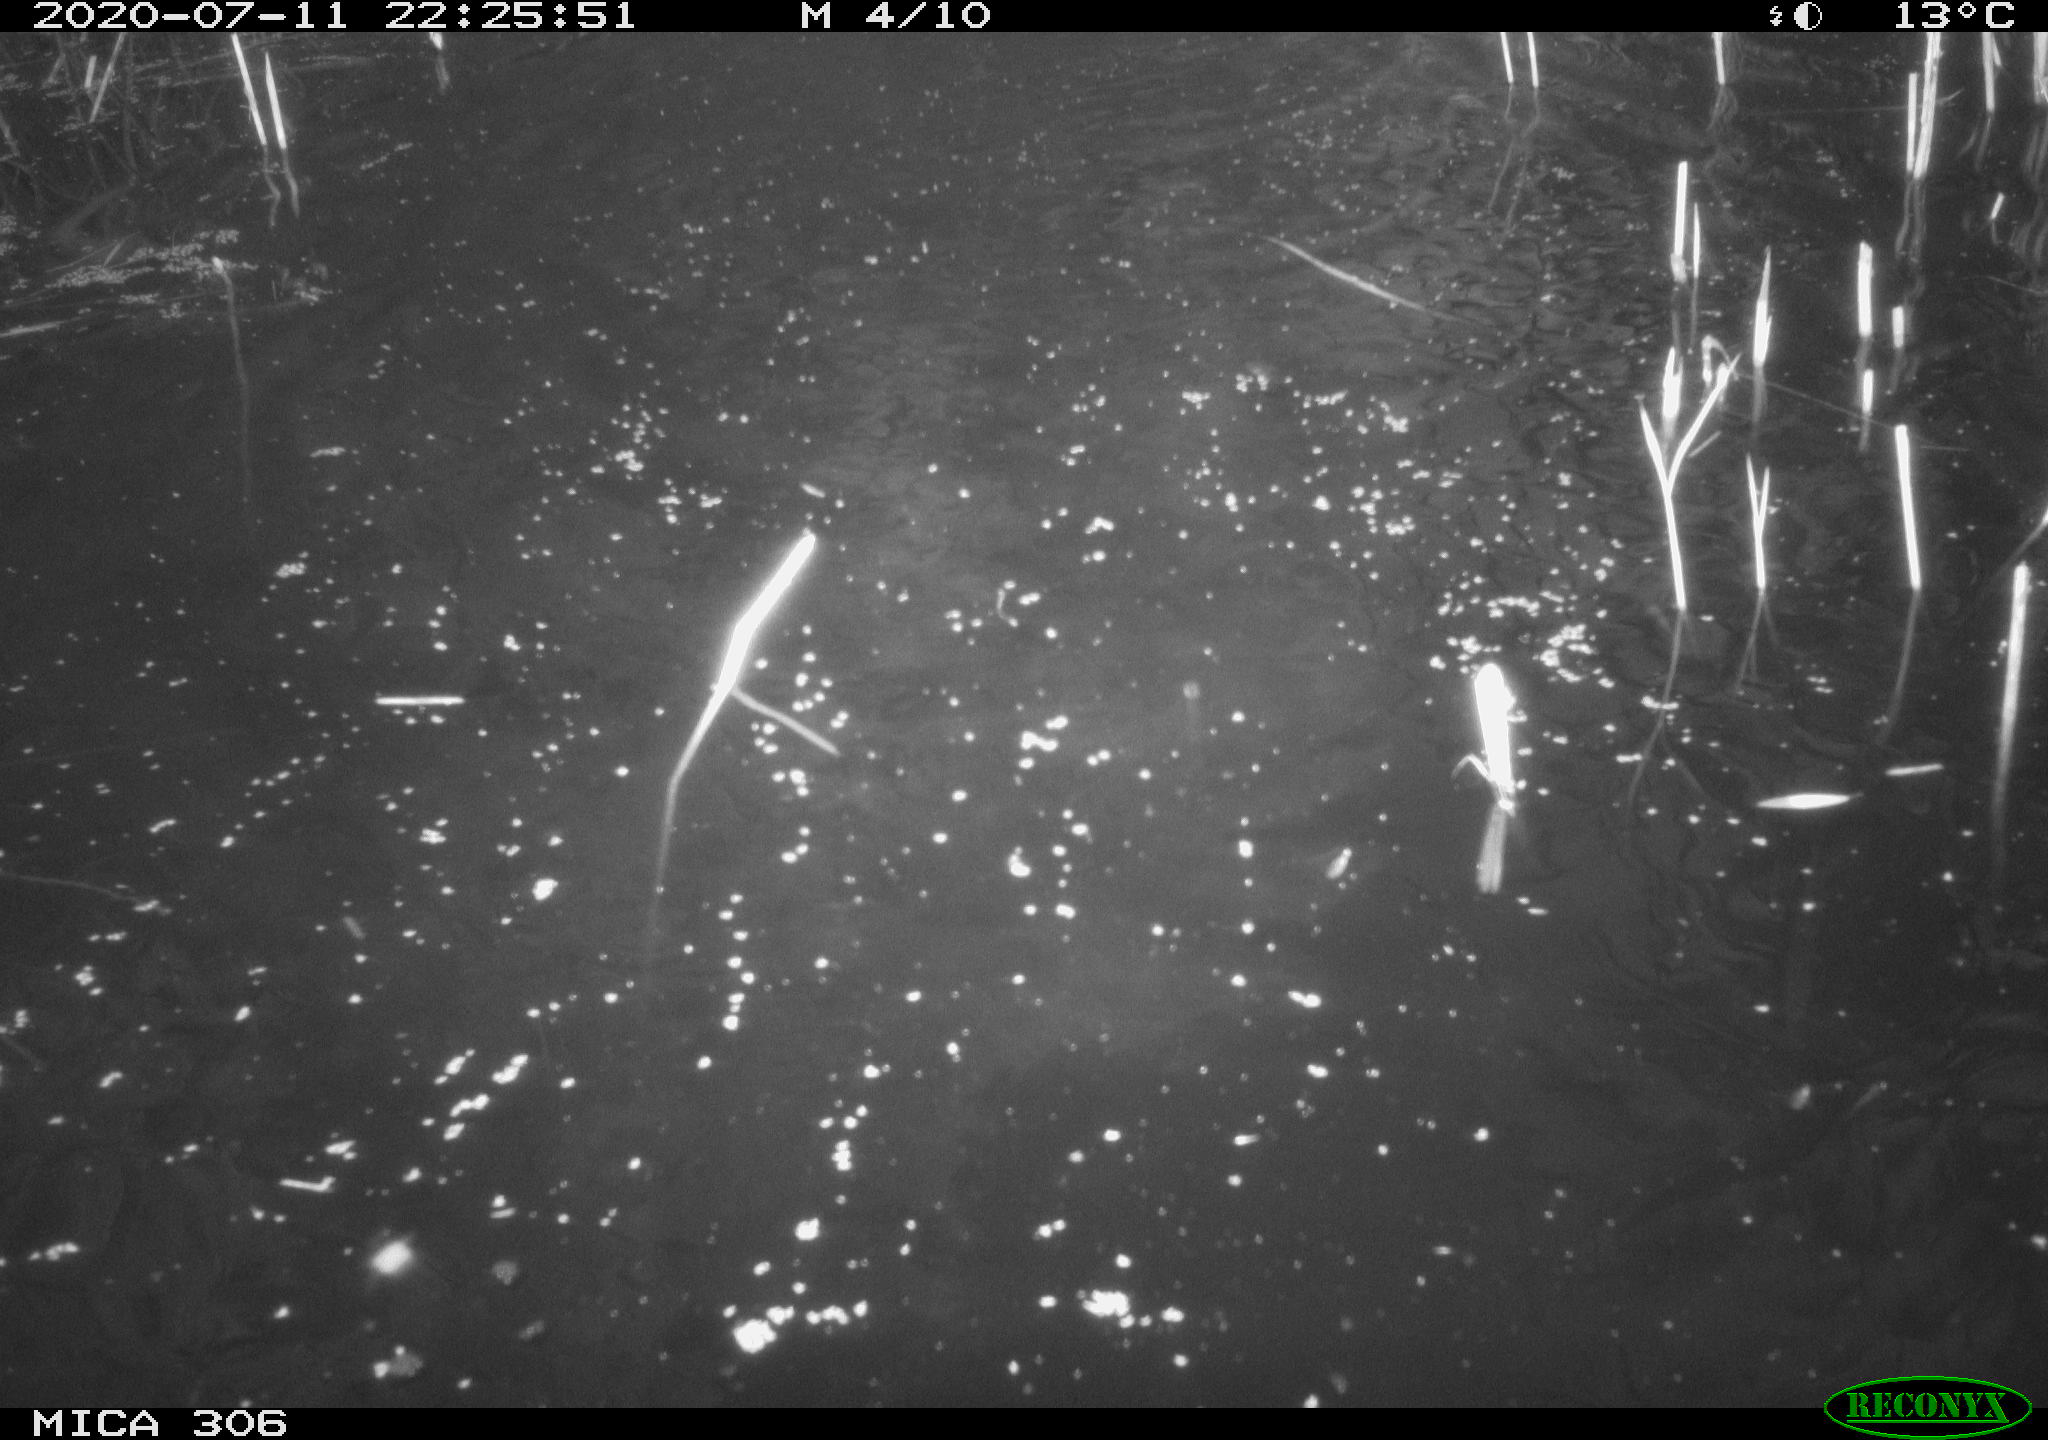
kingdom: Animalia
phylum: Chordata
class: Mammalia
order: Rodentia
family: Cricetidae
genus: Ondatra
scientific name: Ondatra zibethicus
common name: Muskrat
